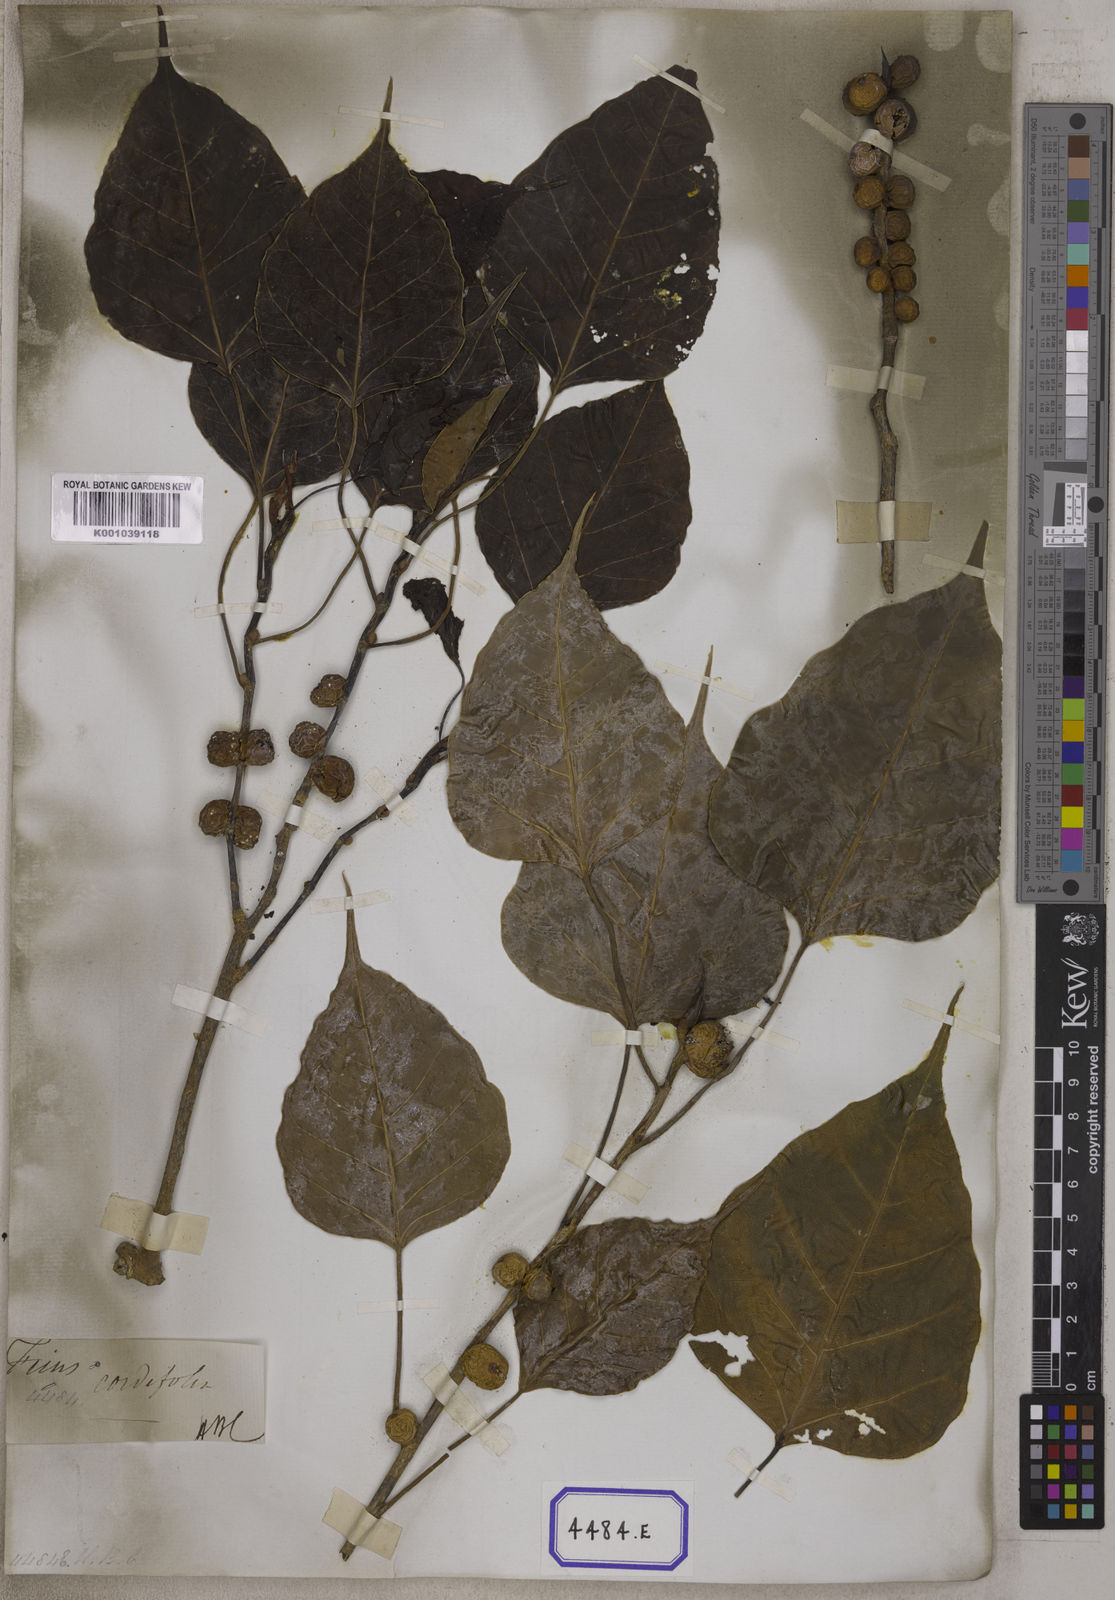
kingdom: Plantae
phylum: Tracheophyta
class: Magnoliopsida
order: Rosales
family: Moraceae
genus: Ficus
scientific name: Ficus rumphii
